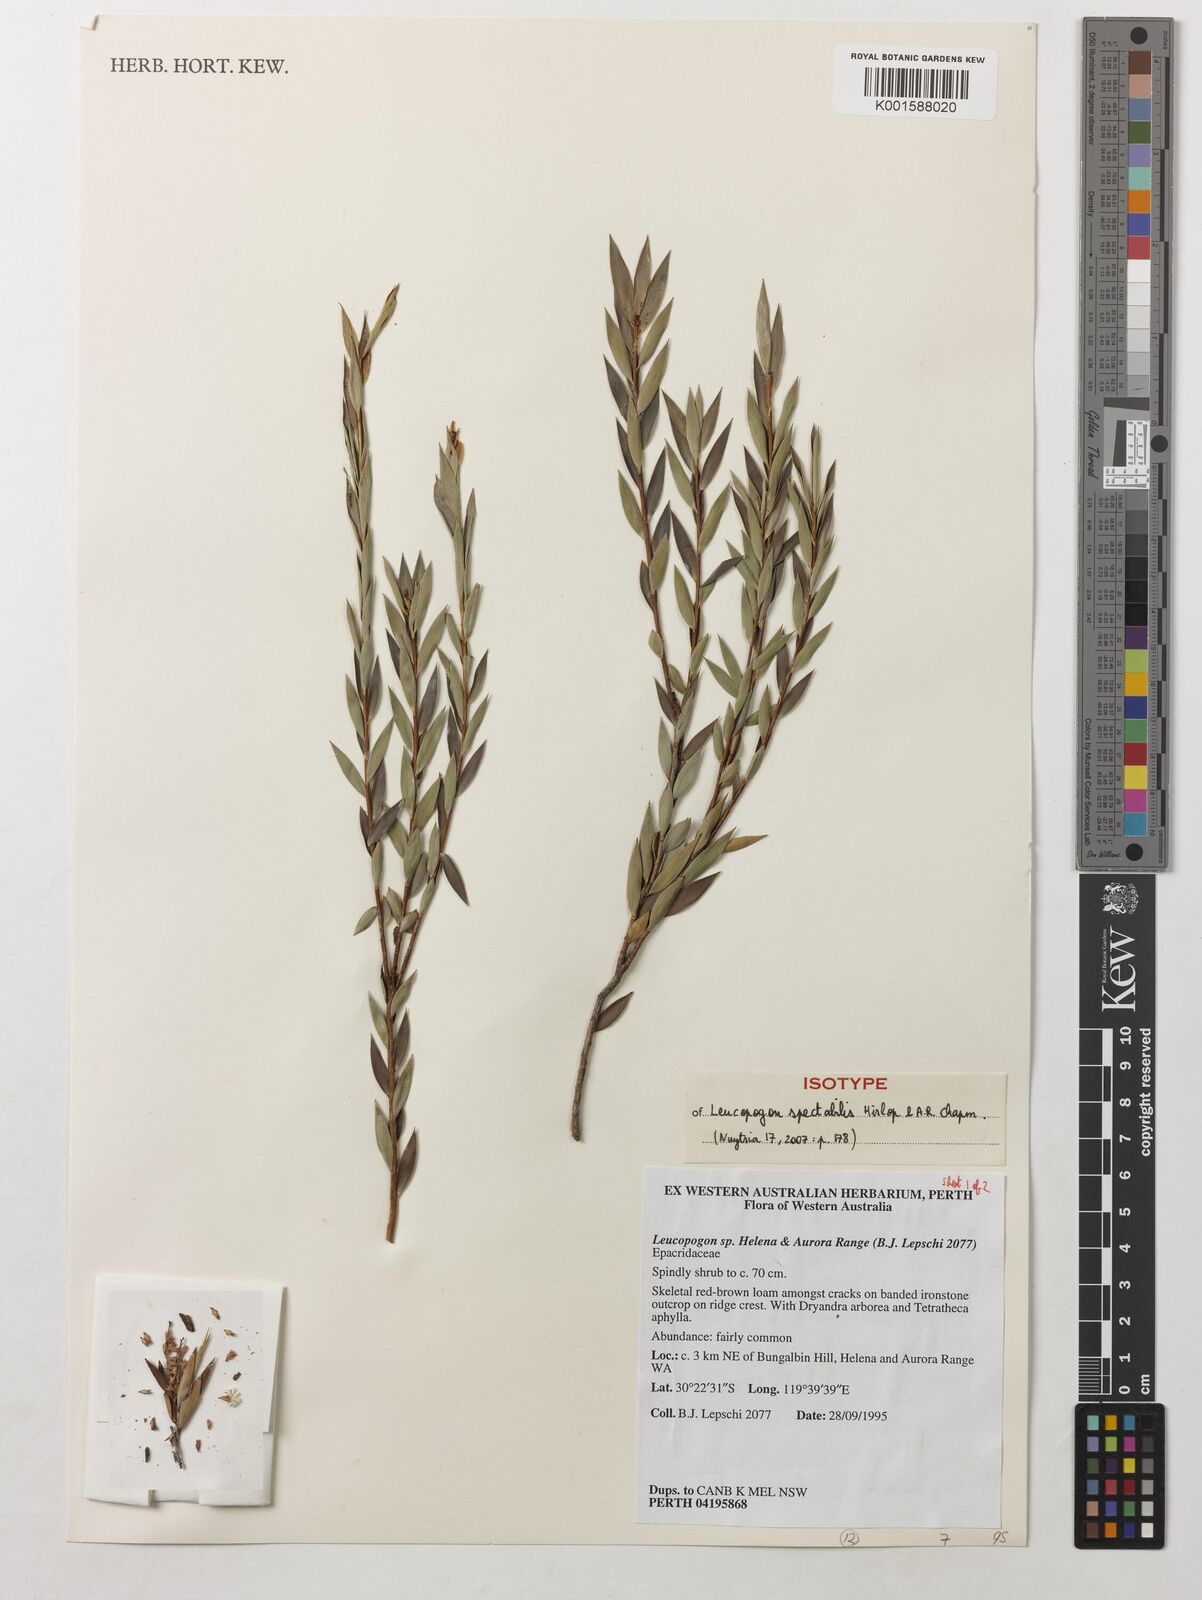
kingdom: Plantae
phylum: Tracheophyta
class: Magnoliopsida
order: Ericales
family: Ericaceae
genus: Leucopogon
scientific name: Leucopogon spectabilis
